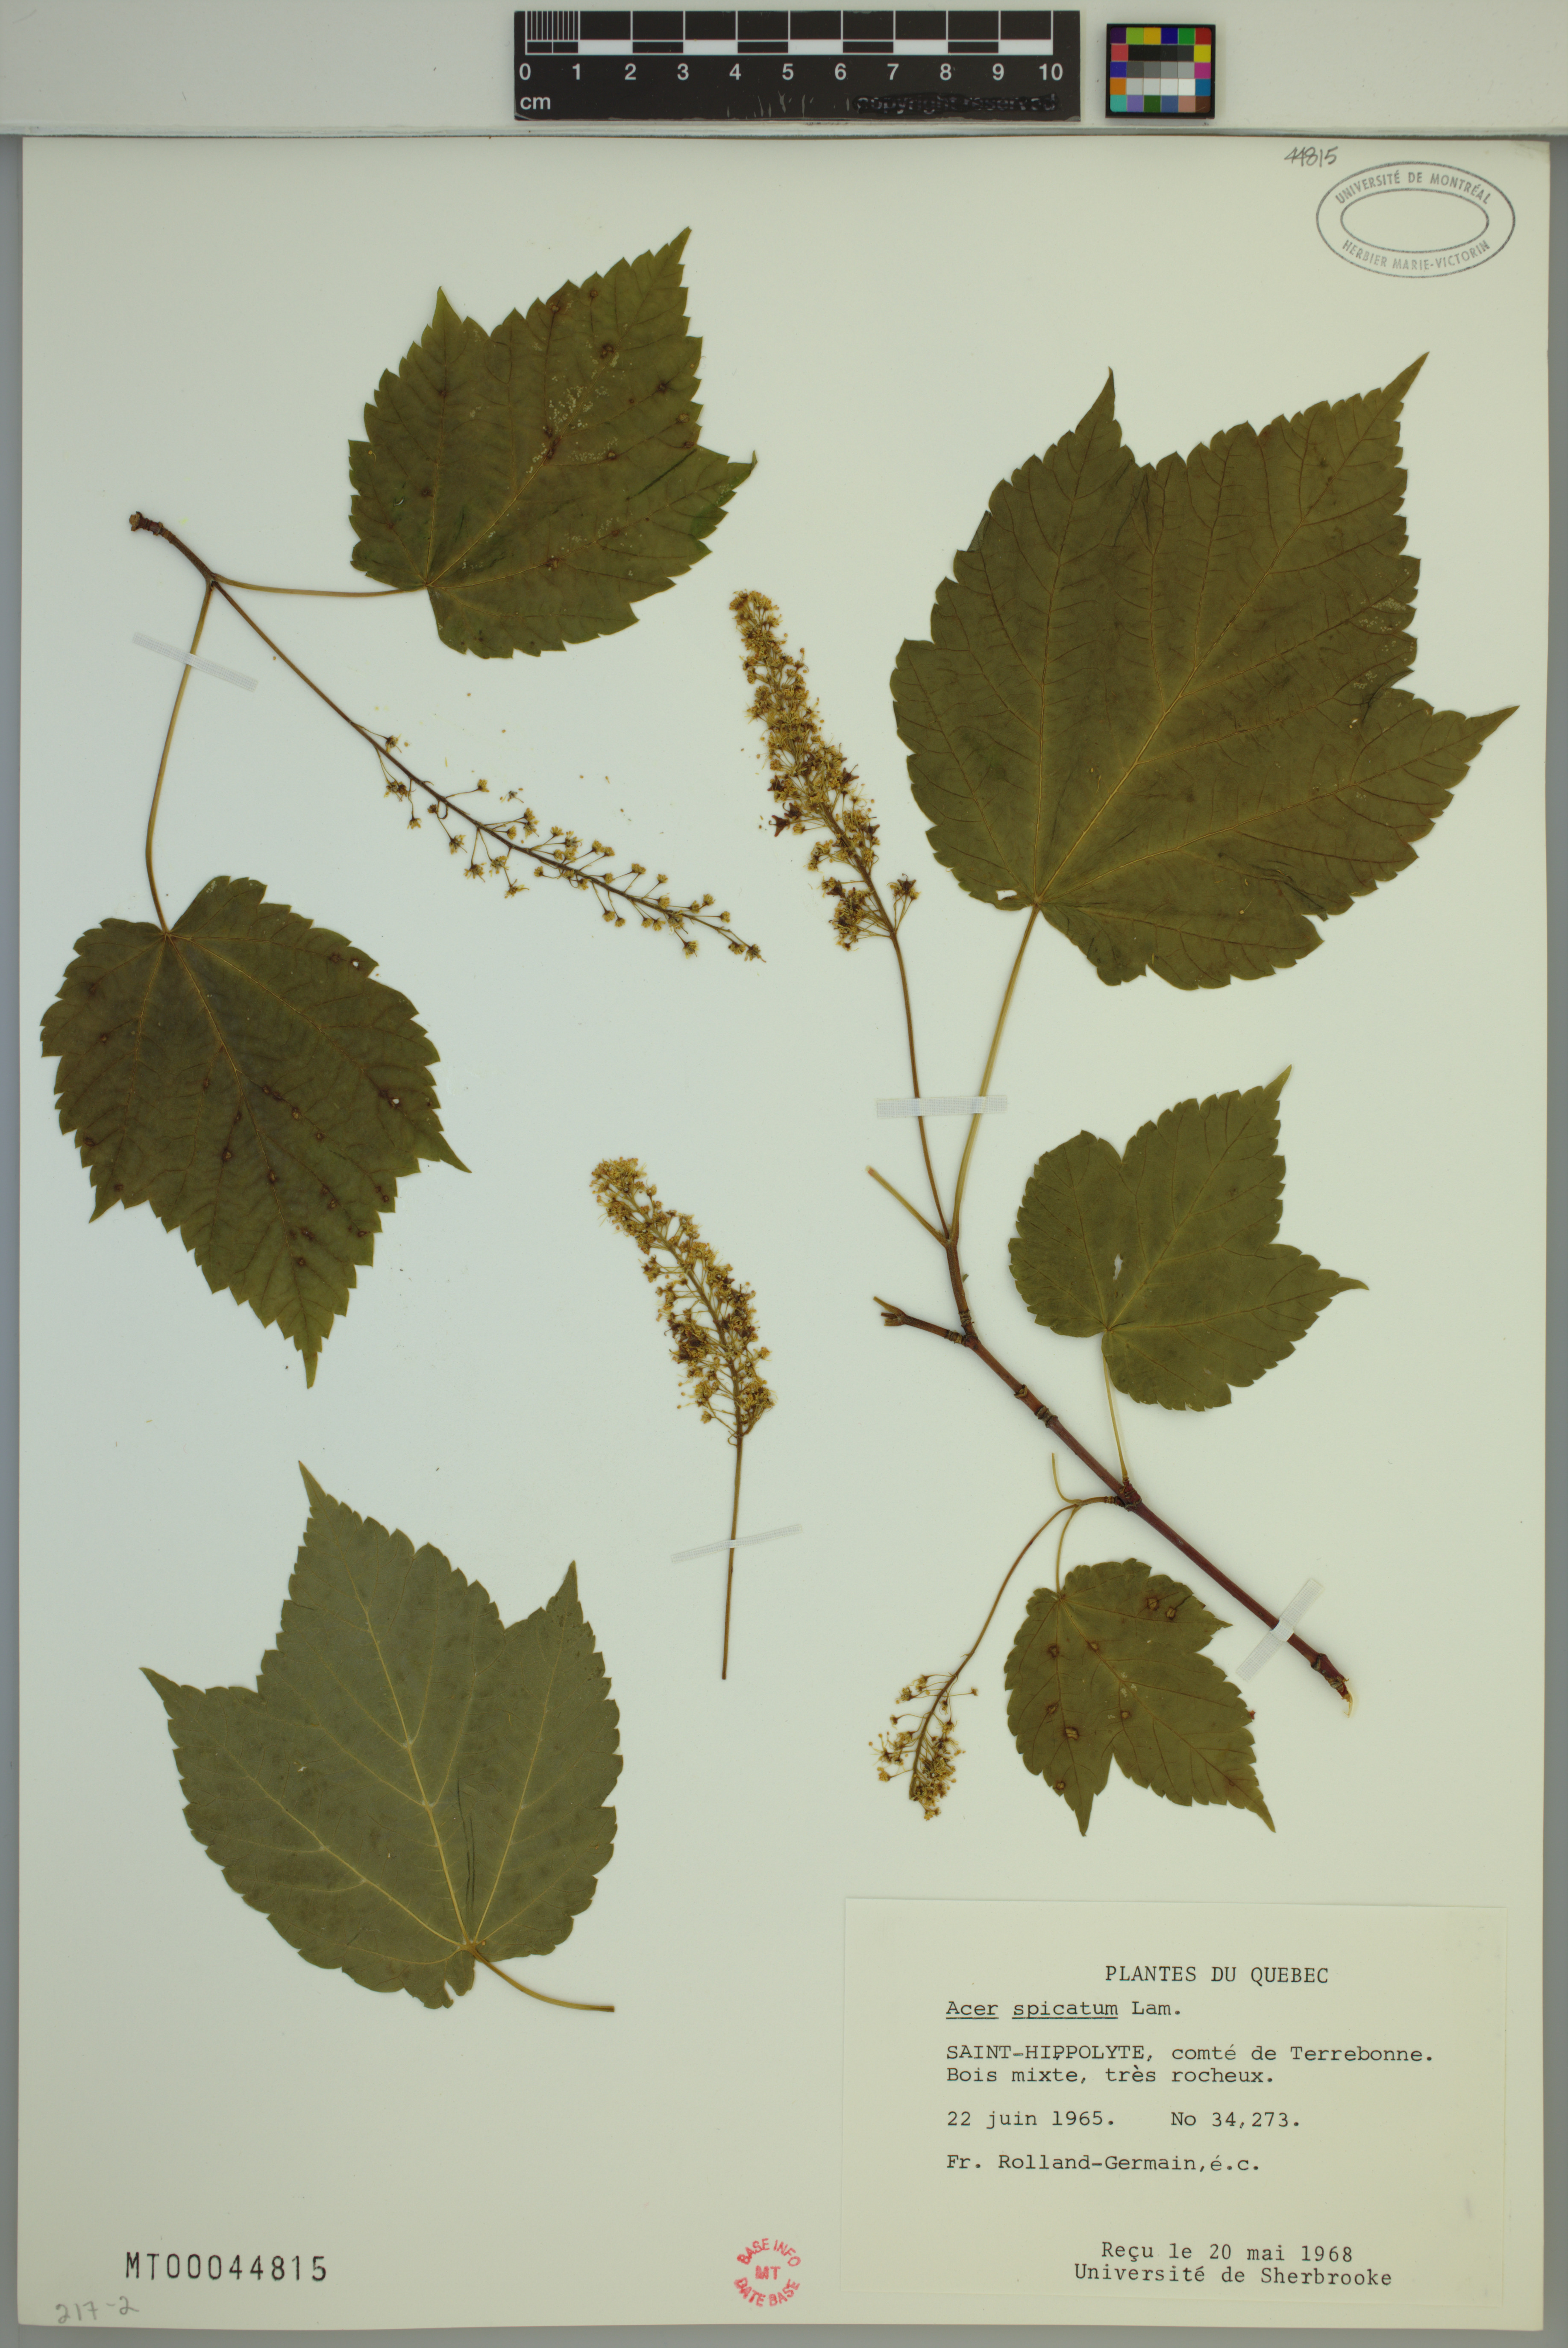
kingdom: Plantae
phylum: Tracheophyta
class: Magnoliopsida
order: Sapindales
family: Sapindaceae
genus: Acer
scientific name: Acer spicatum
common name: Mountain maple
